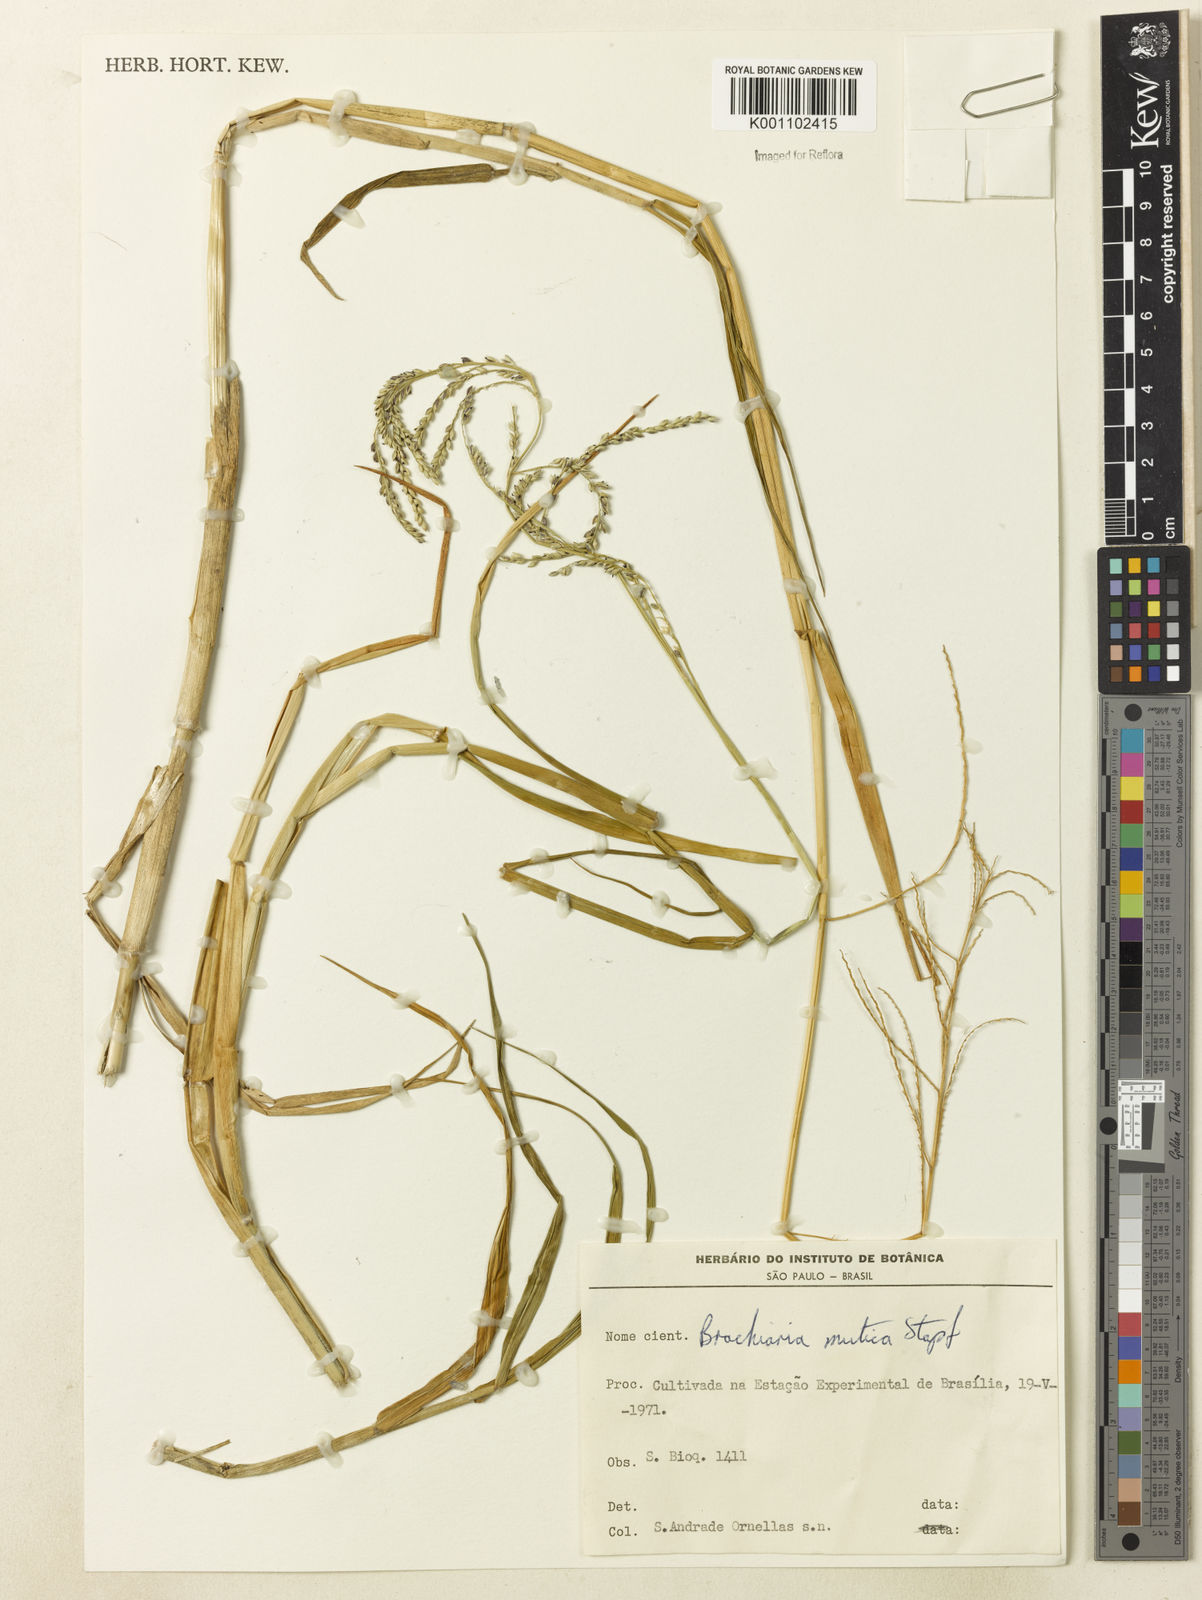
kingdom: Plantae
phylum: Tracheophyta
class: Liliopsida
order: Poales
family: Poaceae
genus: Urochloa
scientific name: Urochloa mutica
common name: Para grass
